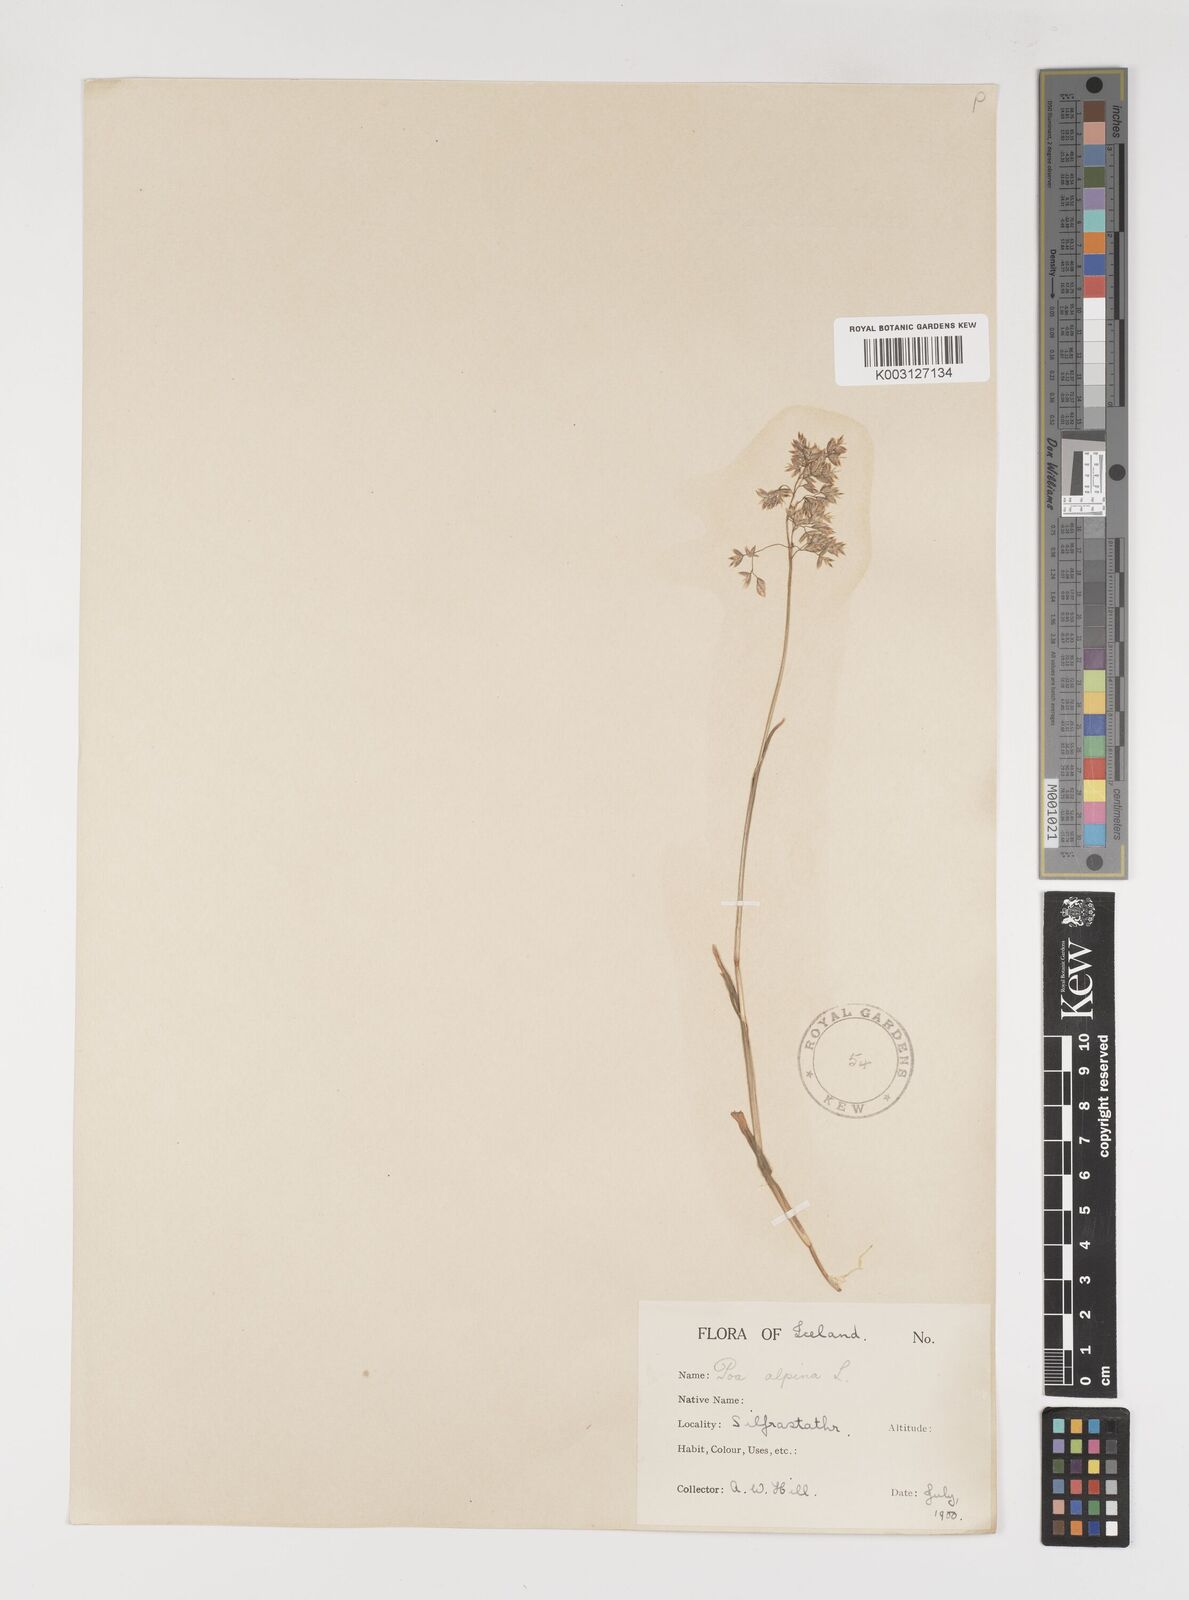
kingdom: Plantae
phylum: Tracheophyta
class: Liliopsida
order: Poales
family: Poaceae
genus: Poa
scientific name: Poa alpina
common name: Alpine bluegrass
